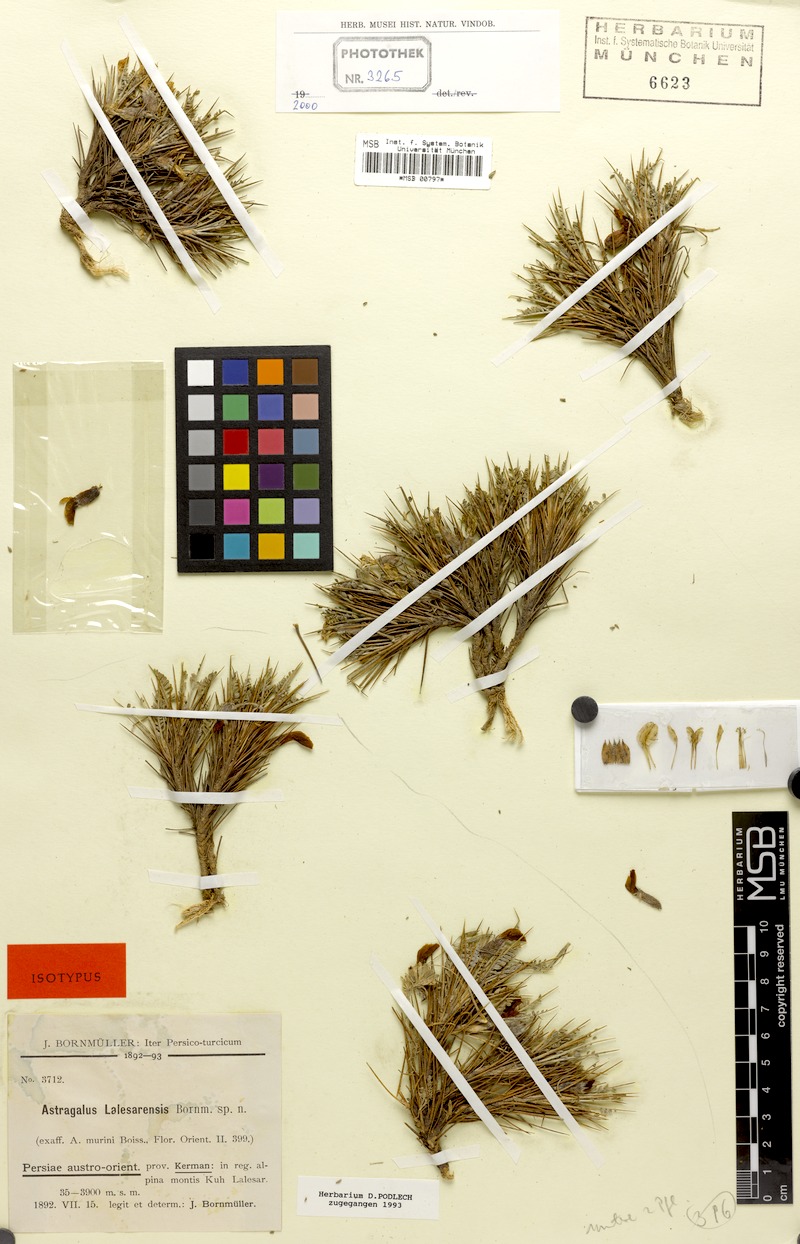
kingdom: Plantae
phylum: Tracheophyta
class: Magnoliopsida
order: Fabales
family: Fabaceae
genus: Astragalus
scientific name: Astragalus lalesarensis
